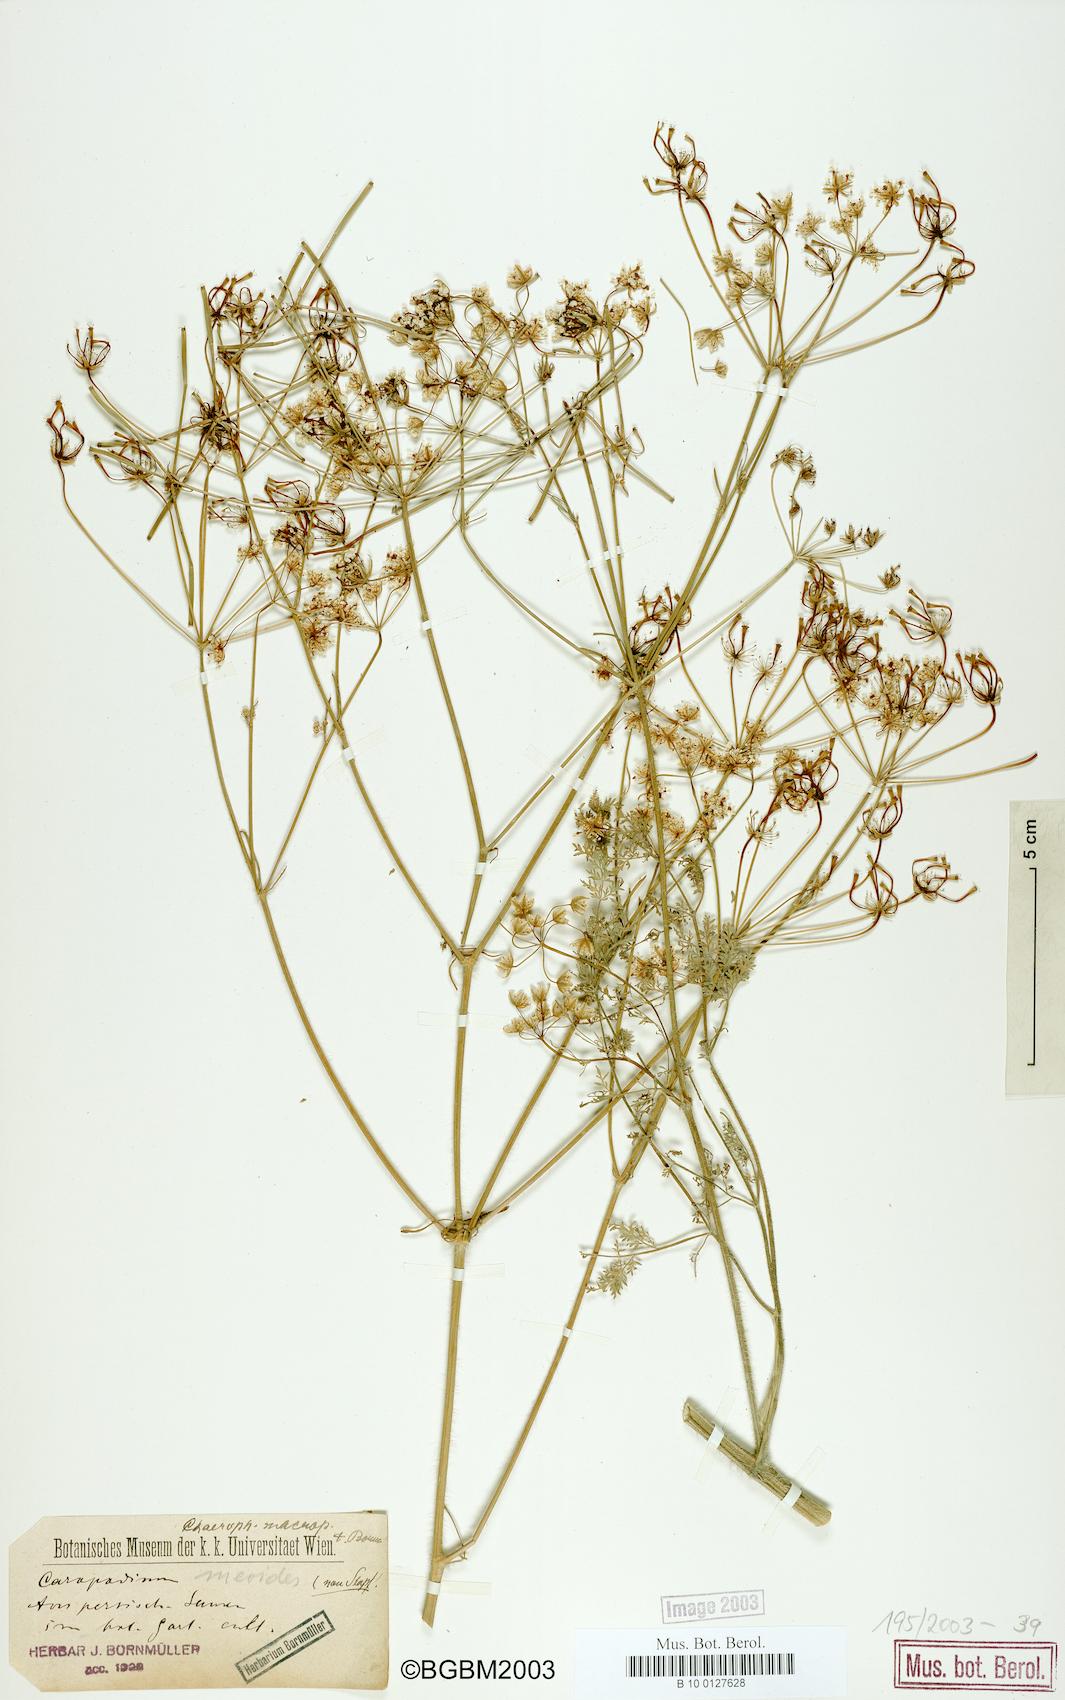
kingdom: Plantae
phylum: Tracheophyta
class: Magnoliopsida
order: Apiales
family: Apiaceae
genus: Chaerophyllum
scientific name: Chaerophyllum macropodum
